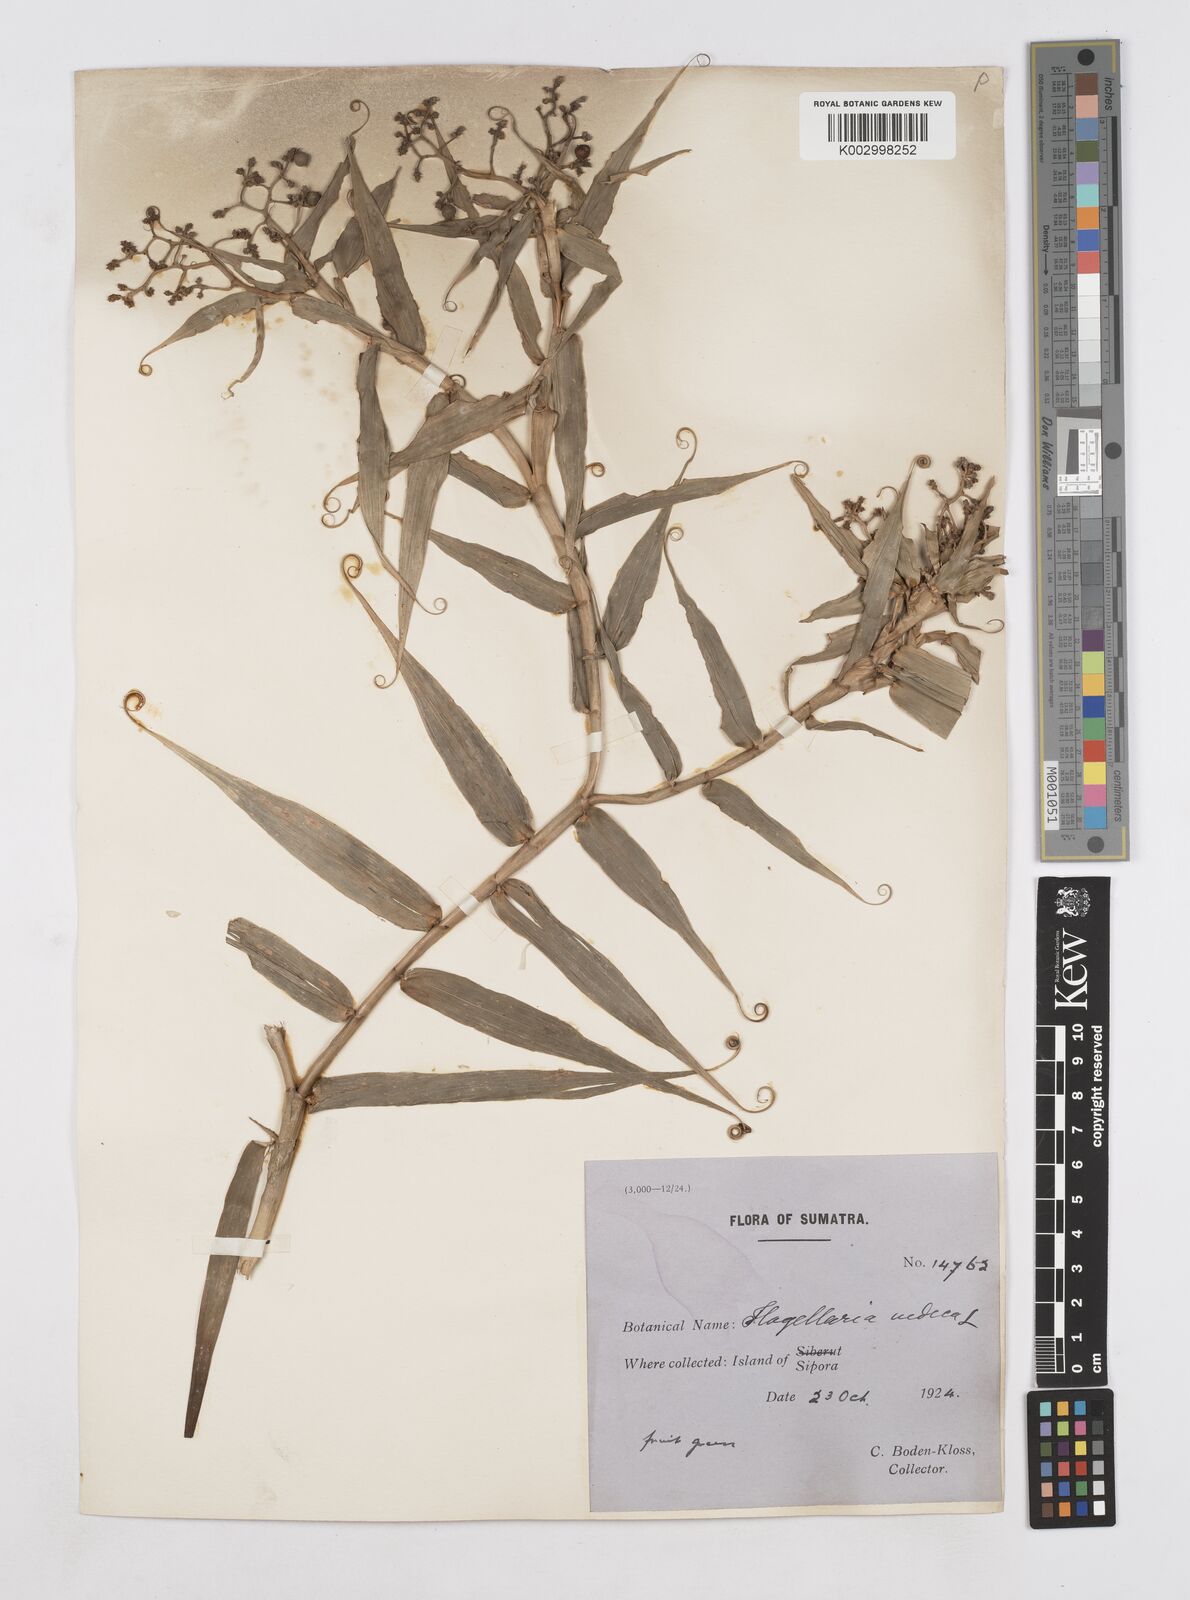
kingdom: Plantae
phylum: Tracheophyta
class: Liliopsida
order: Poales
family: Flagellariaceae
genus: Flagellaria
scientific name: Flagellaria indica
